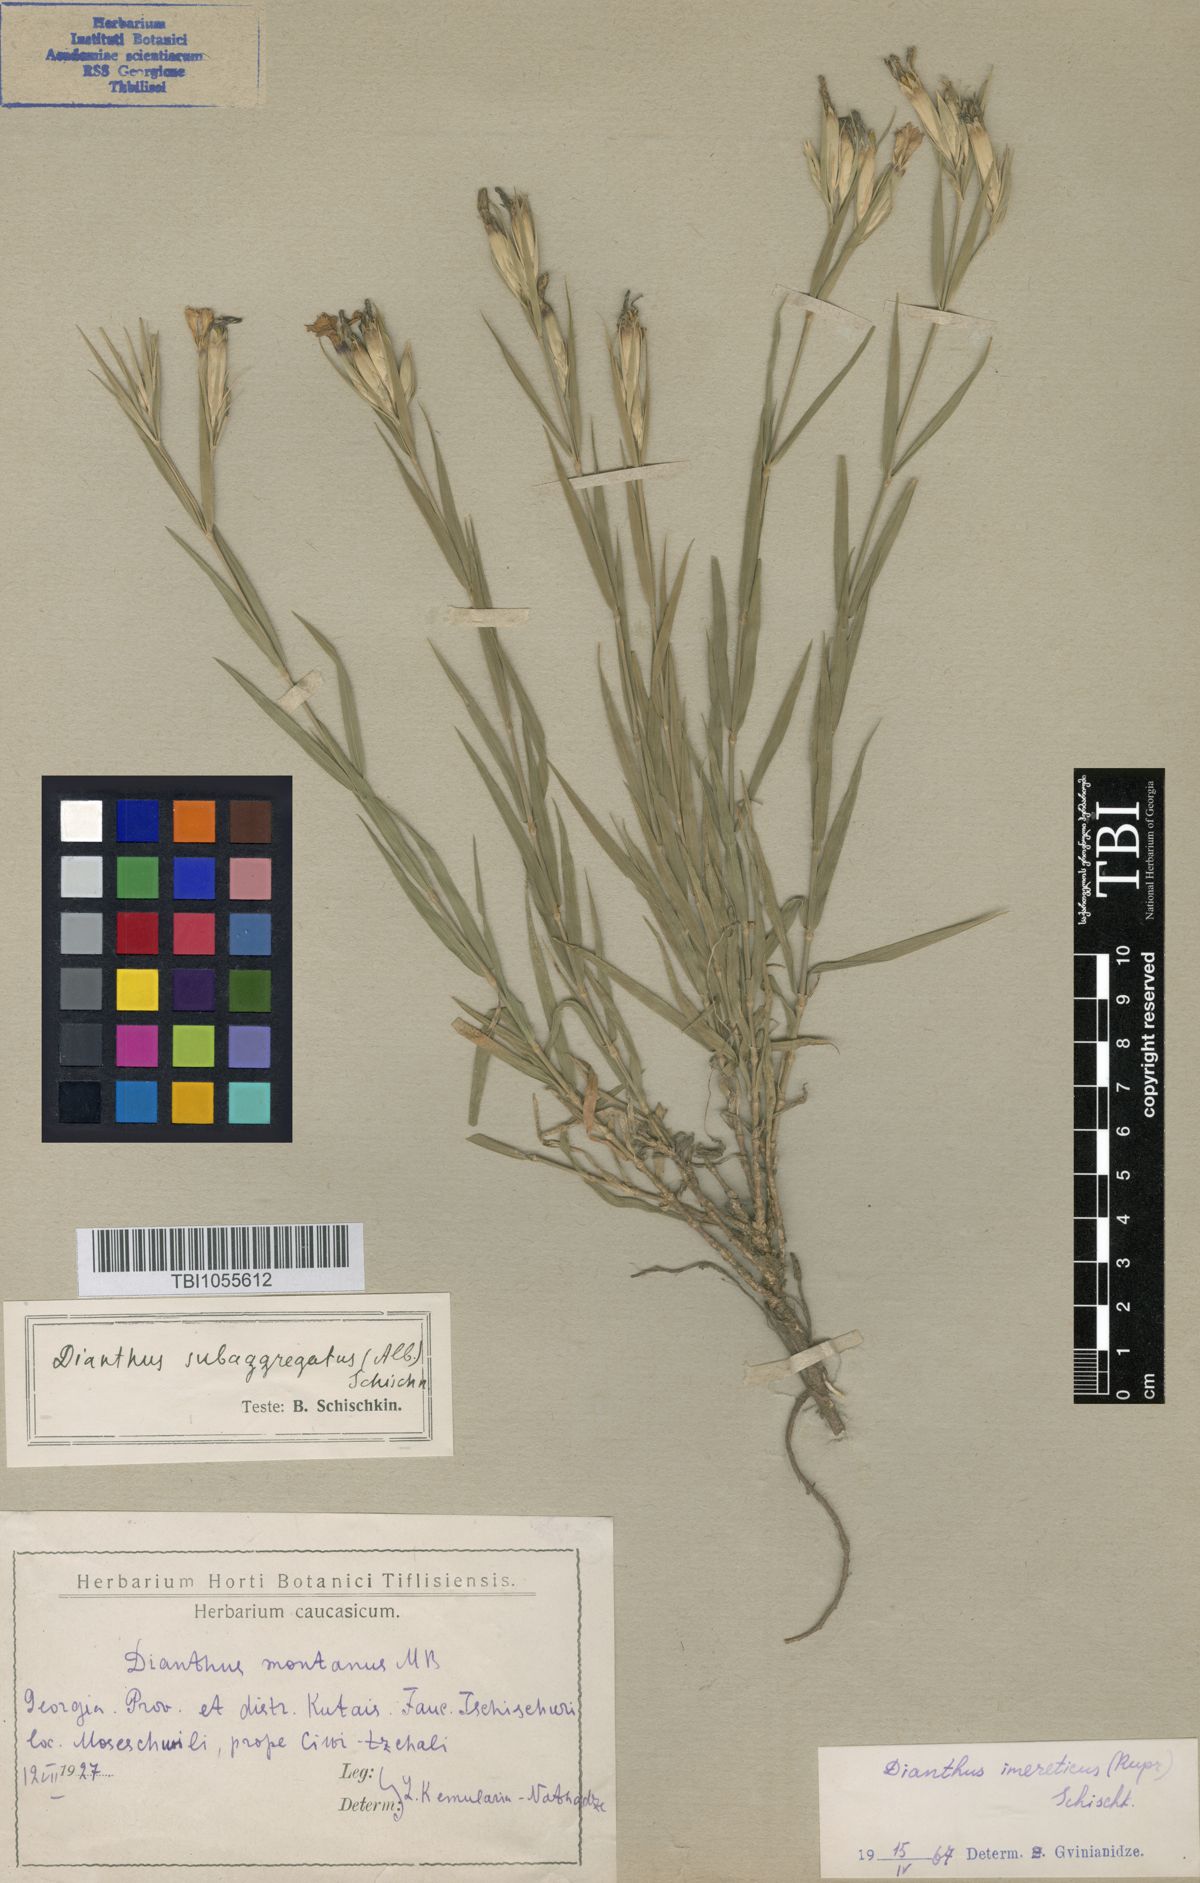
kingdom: Plantae
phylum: Tracheophyta
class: Magnoliopsida
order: Caryophyllales
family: Caryophyllaceae
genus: Dianthus
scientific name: Dianthus imereticus
